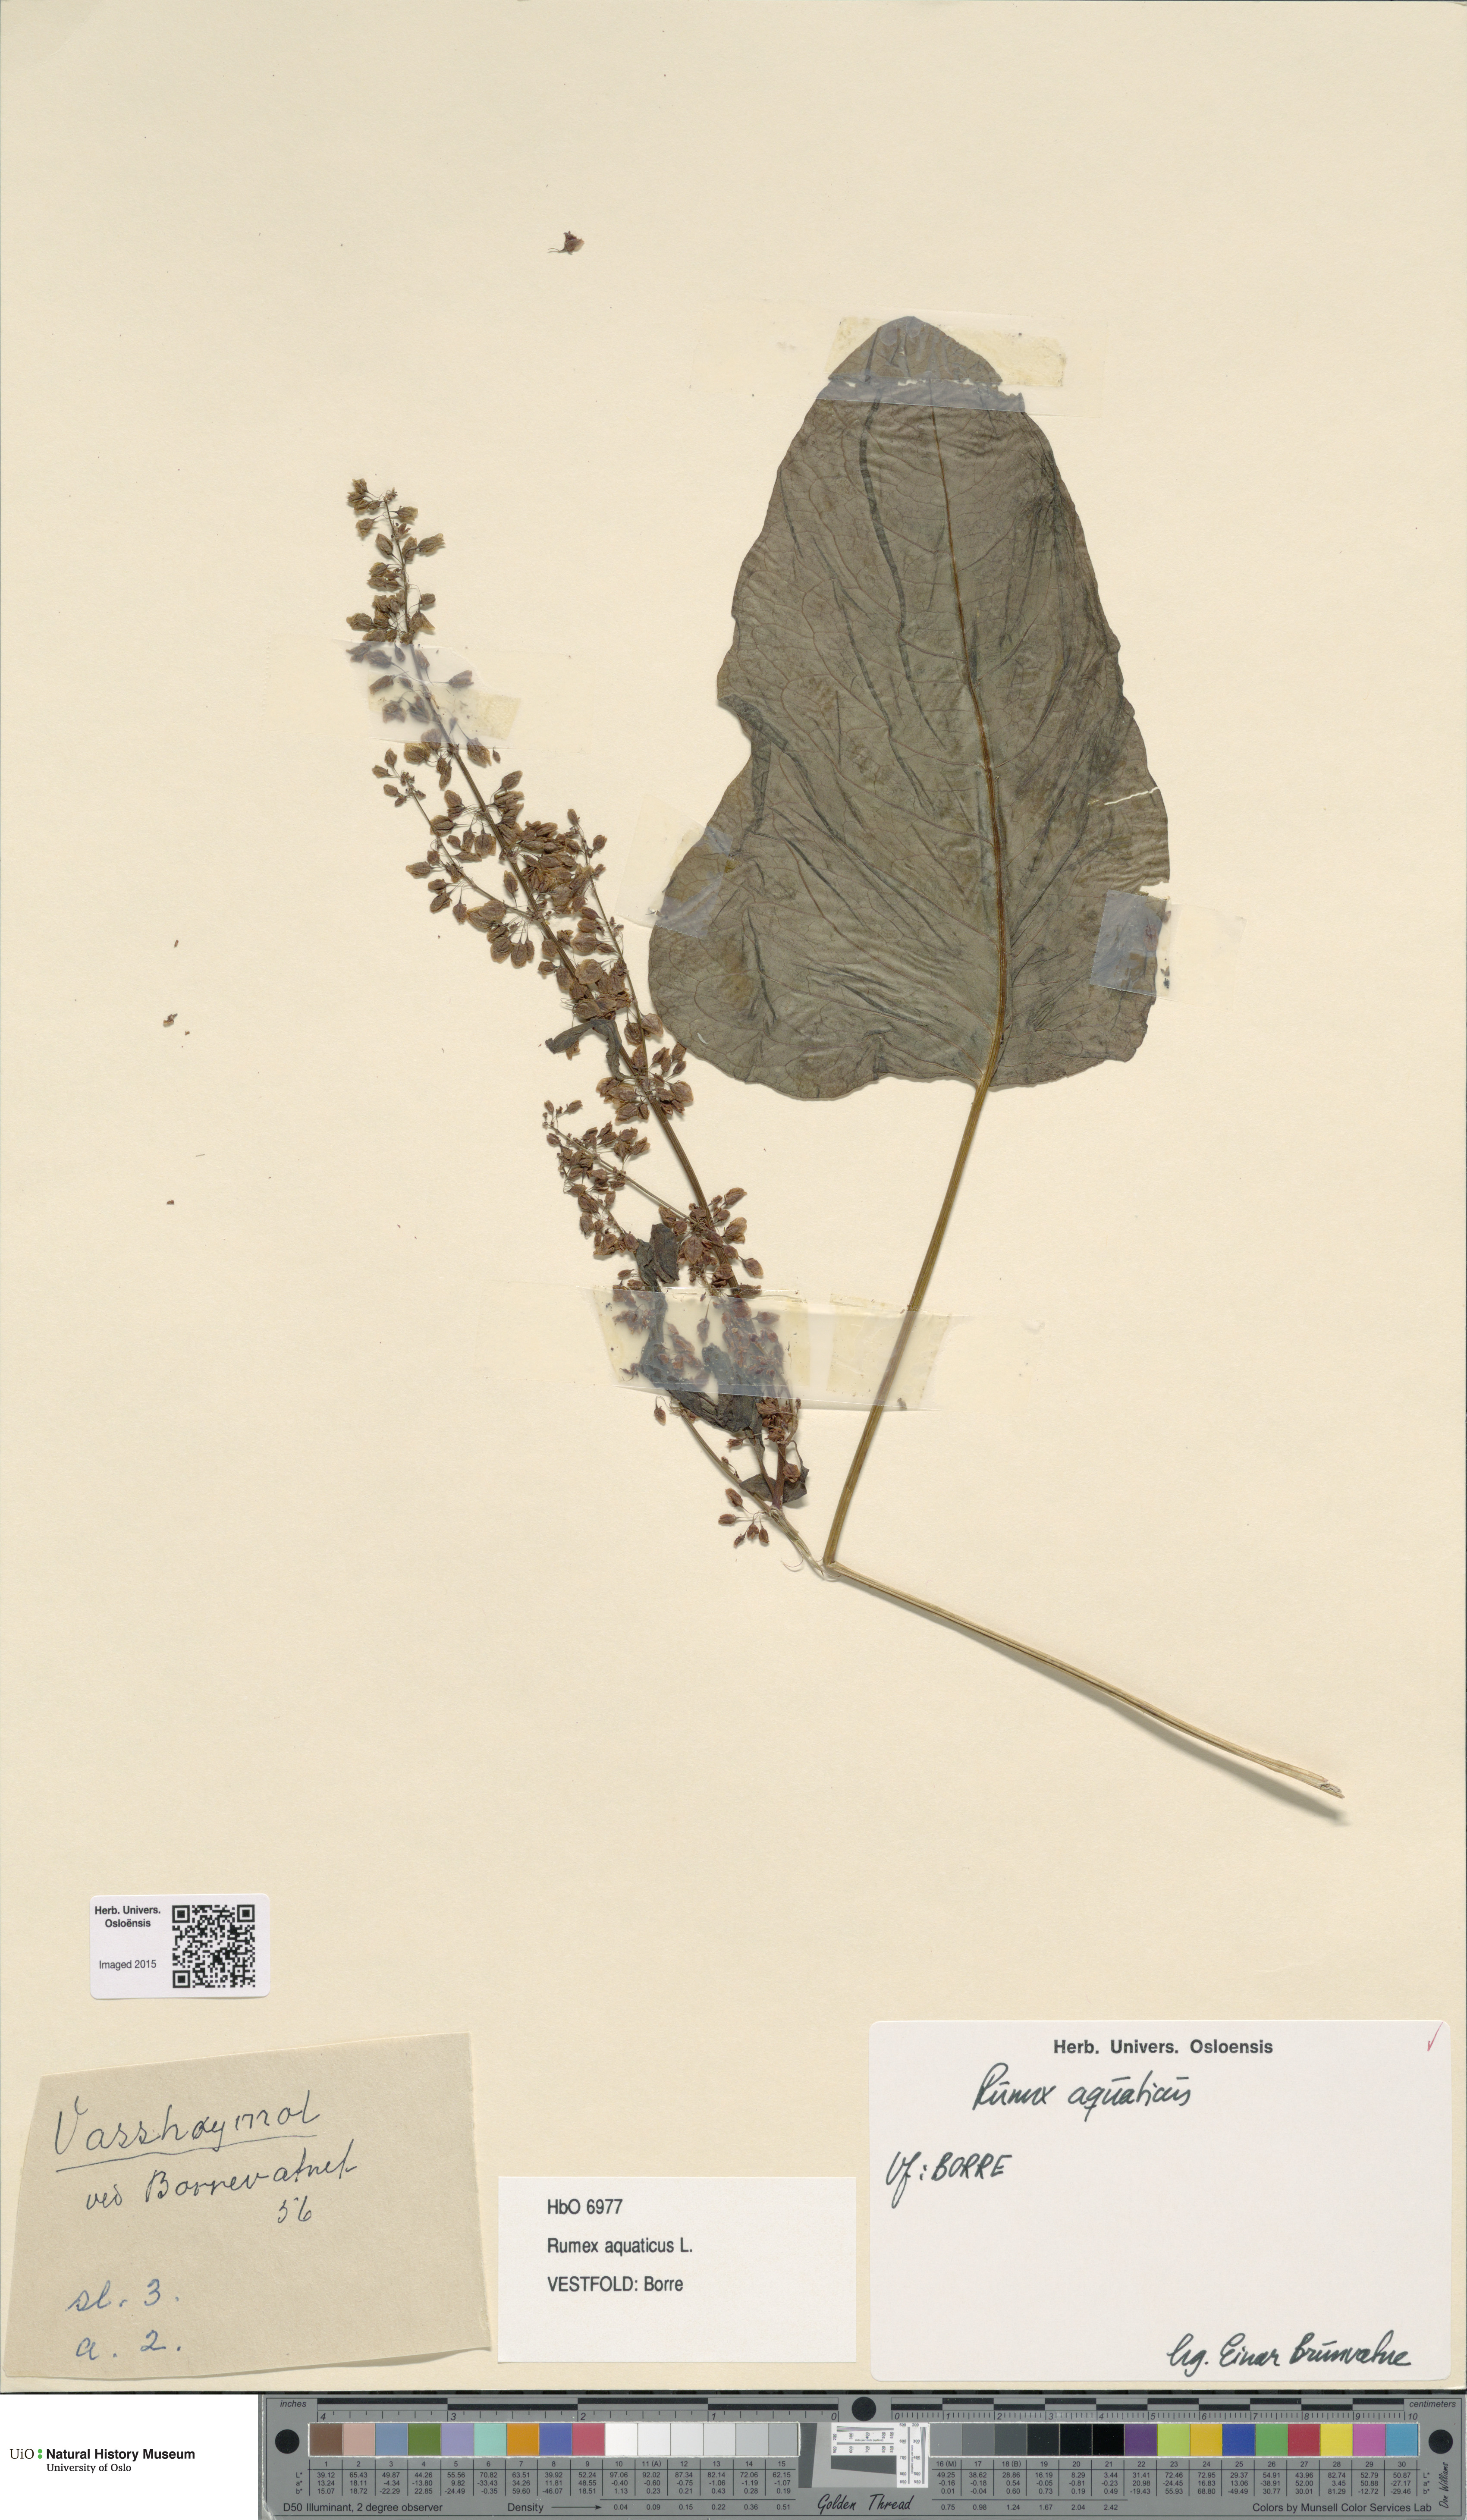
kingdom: Plantae
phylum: Tracheophyta
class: Magnoliopsida
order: Caryophyllales
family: Polygonaceae
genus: Rumex
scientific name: Rumex aquaticus
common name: Scottish dock
